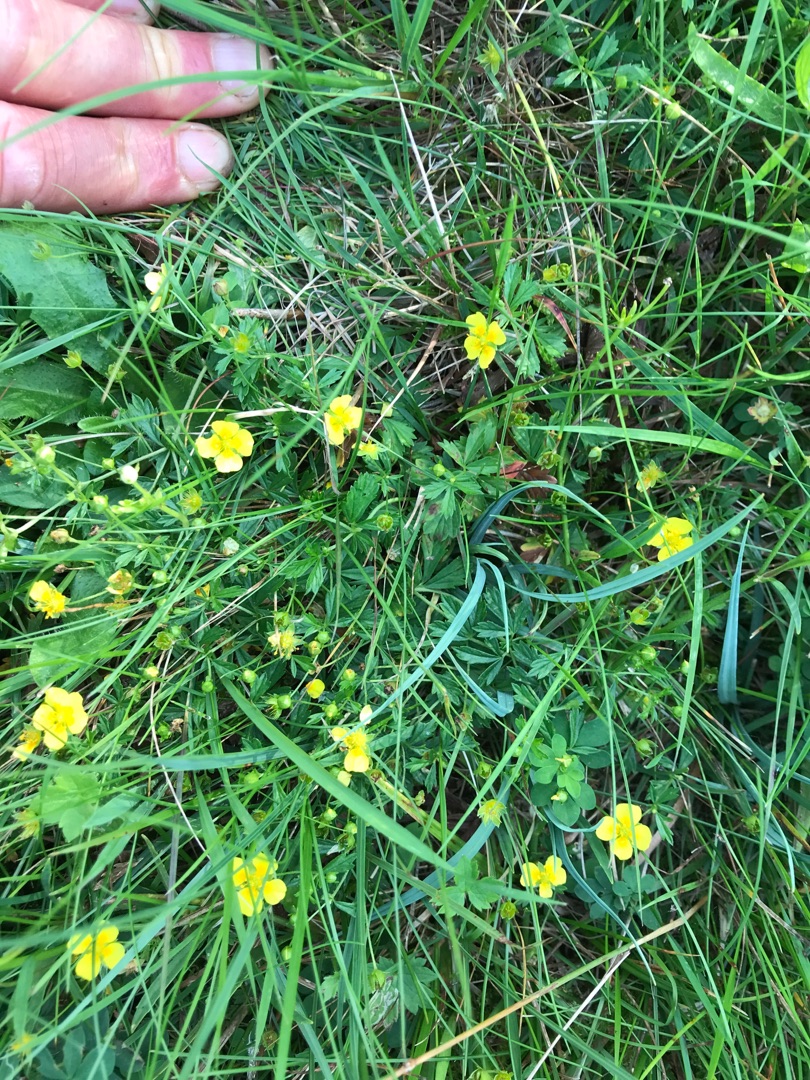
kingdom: Plantae
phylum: Tracheophyta
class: Magnoliopsida
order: Rosales
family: Rosaceae
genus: Potentilla
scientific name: Potentilla erecta
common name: Tormentil
